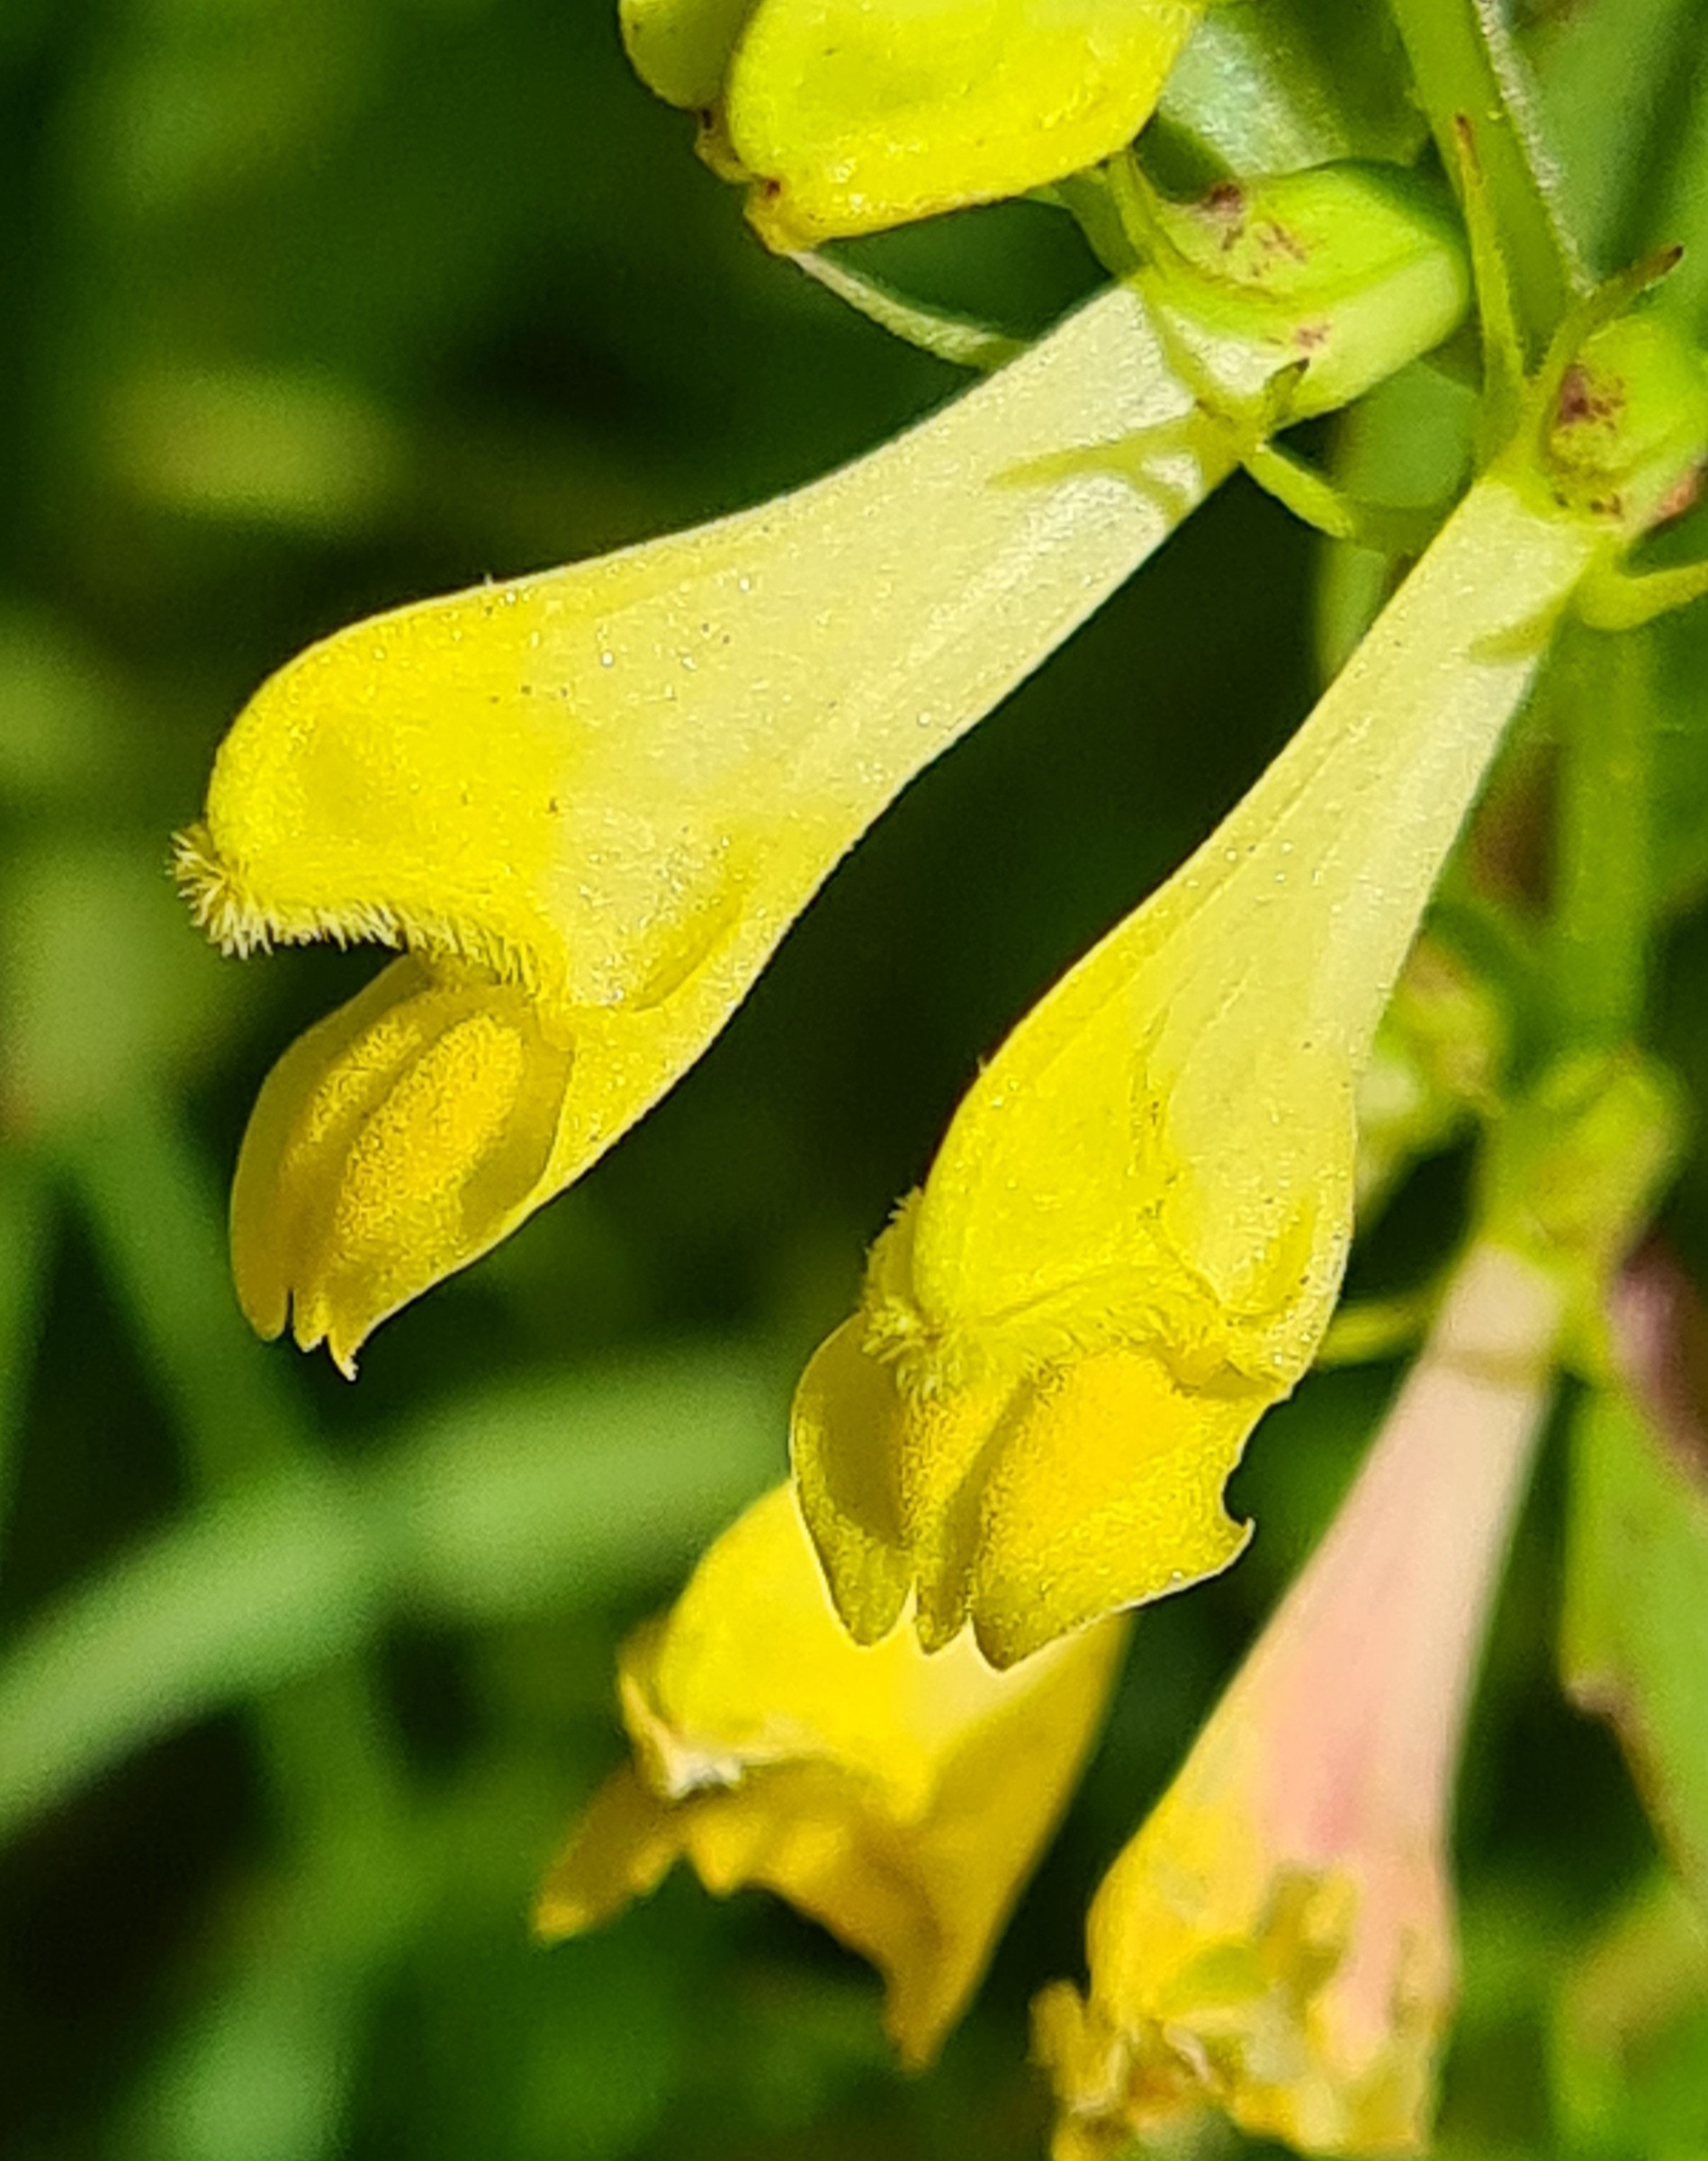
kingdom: Plantae
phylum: Tracheophyta
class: Magnoliopsida
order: Lamiales
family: Orobanchaceae
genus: Melampyrum
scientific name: Melampyrum pratense
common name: Almindelig kohvede
